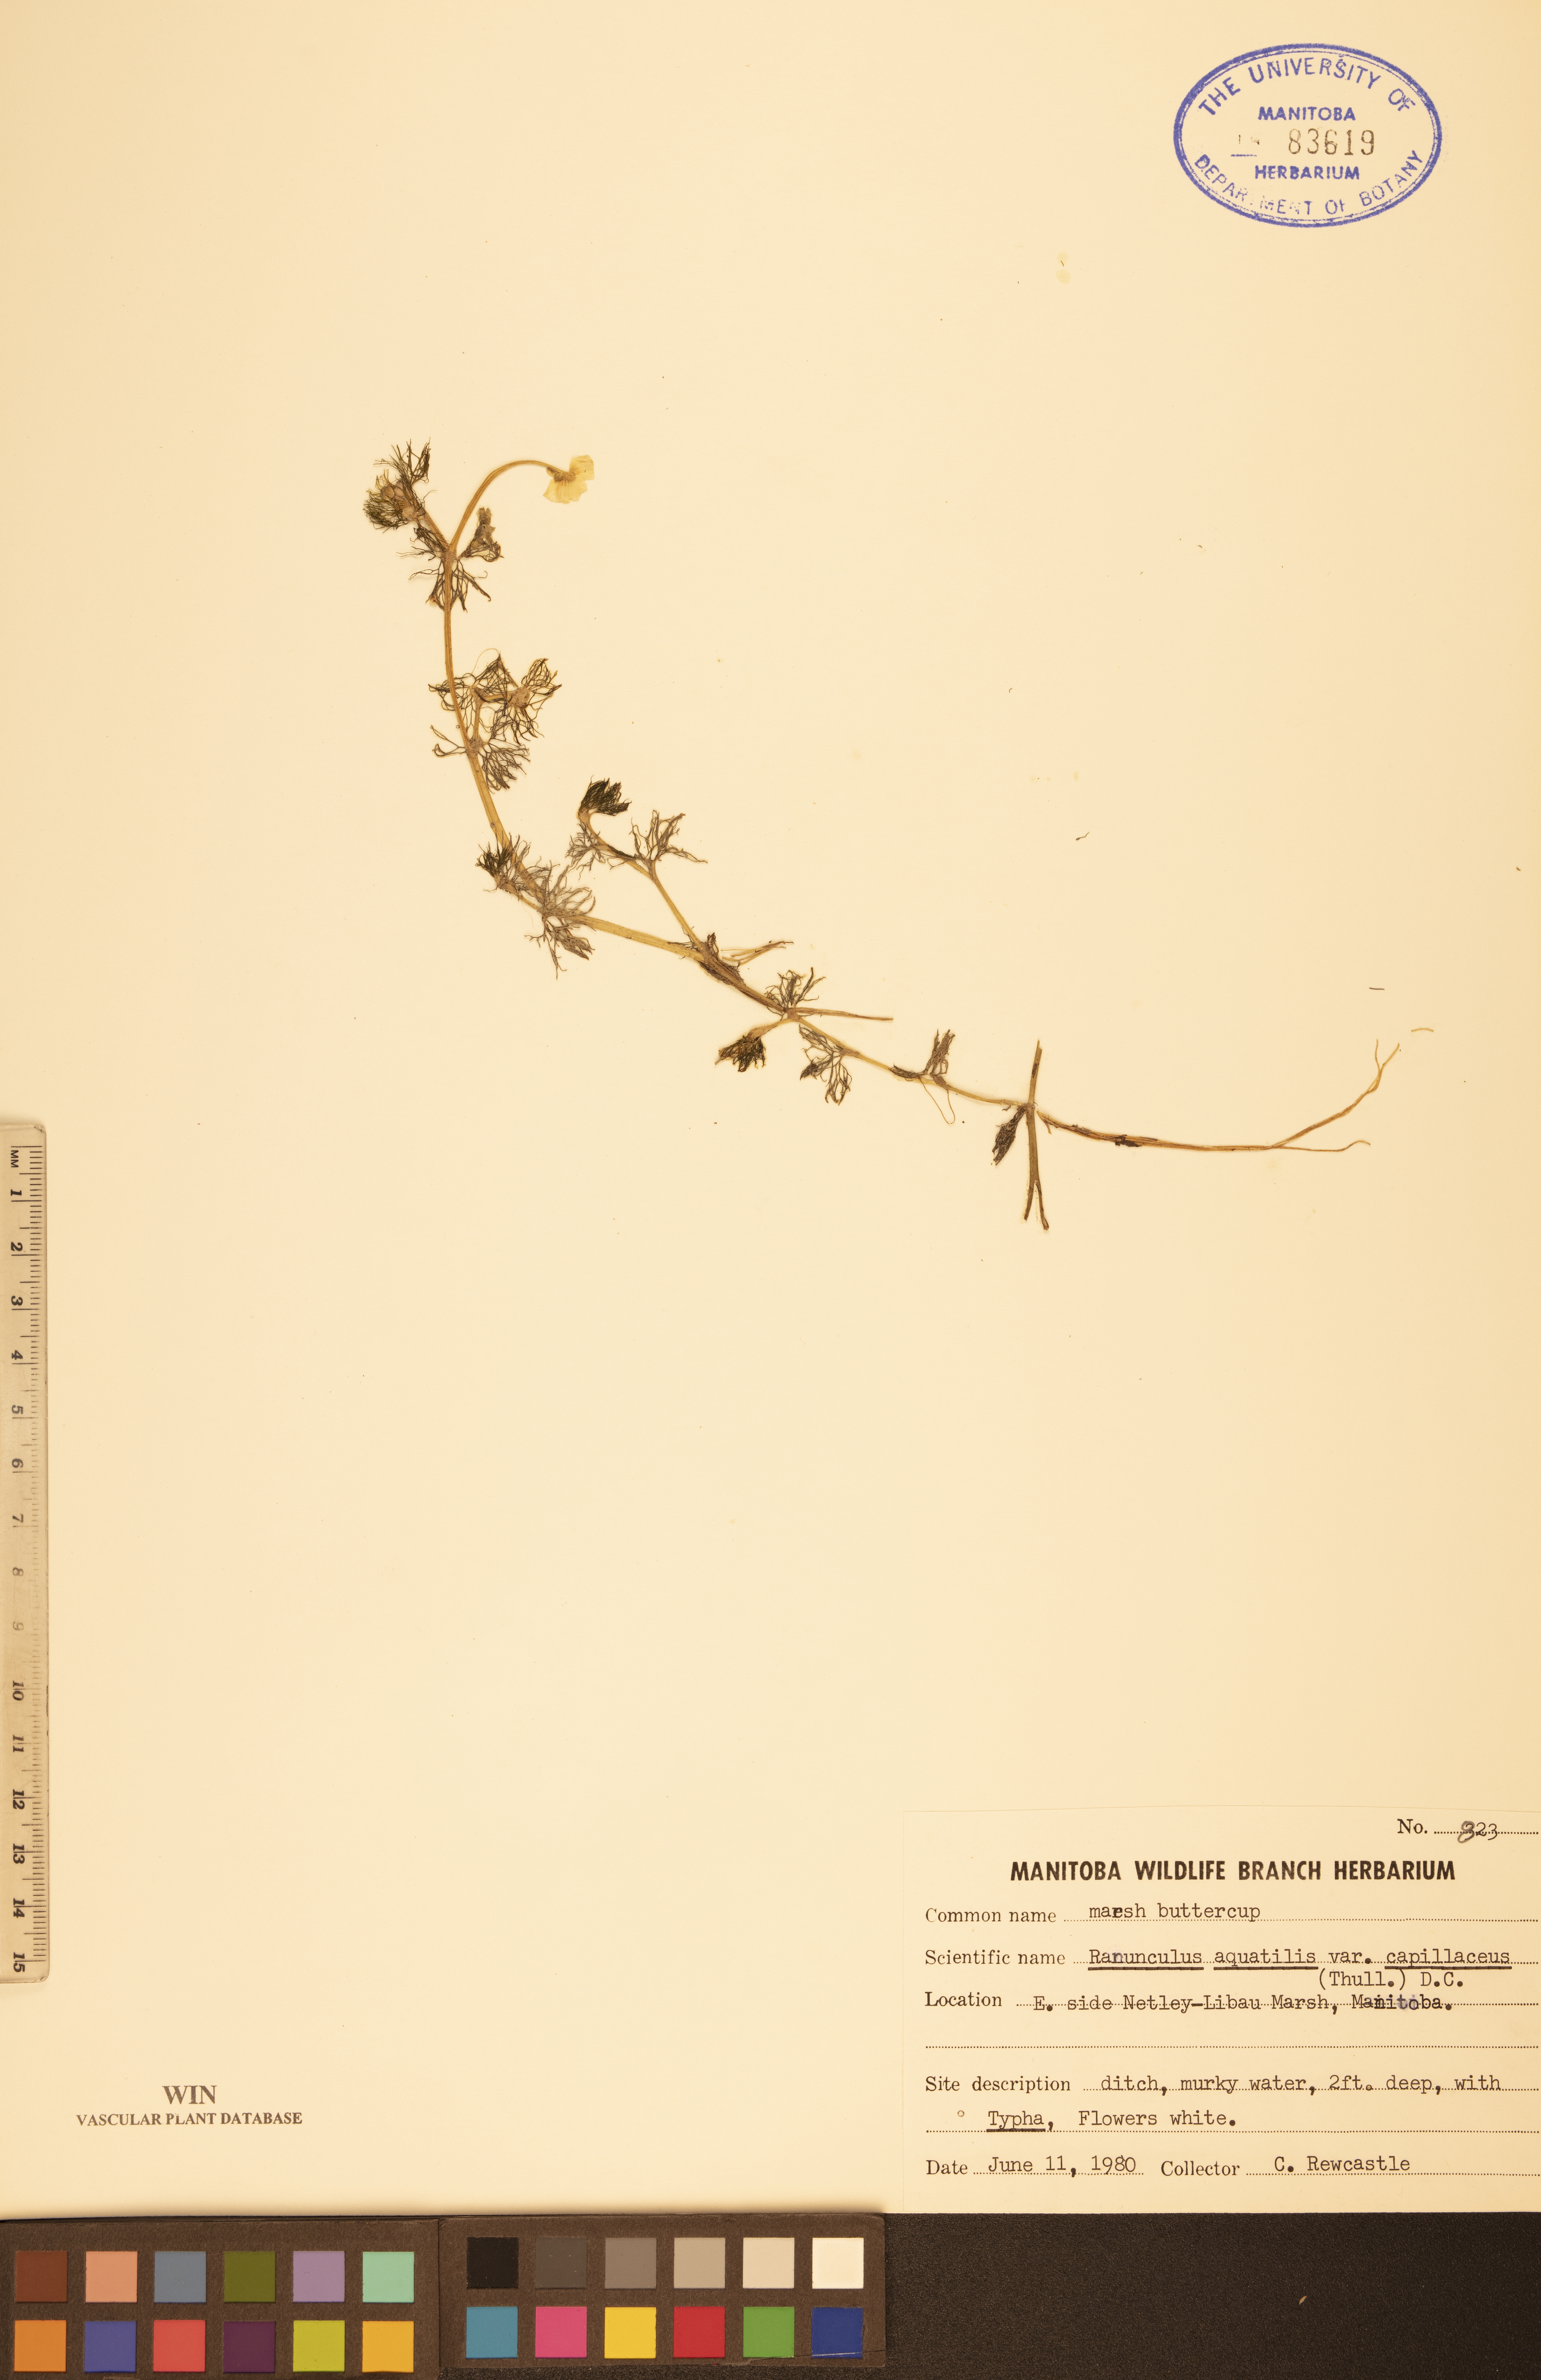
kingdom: Plantae
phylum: Tracheophyta
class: Magnoliopsida
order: Ranunculales
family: Ranunculaceae
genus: Ranunculus
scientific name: Ranunculus
